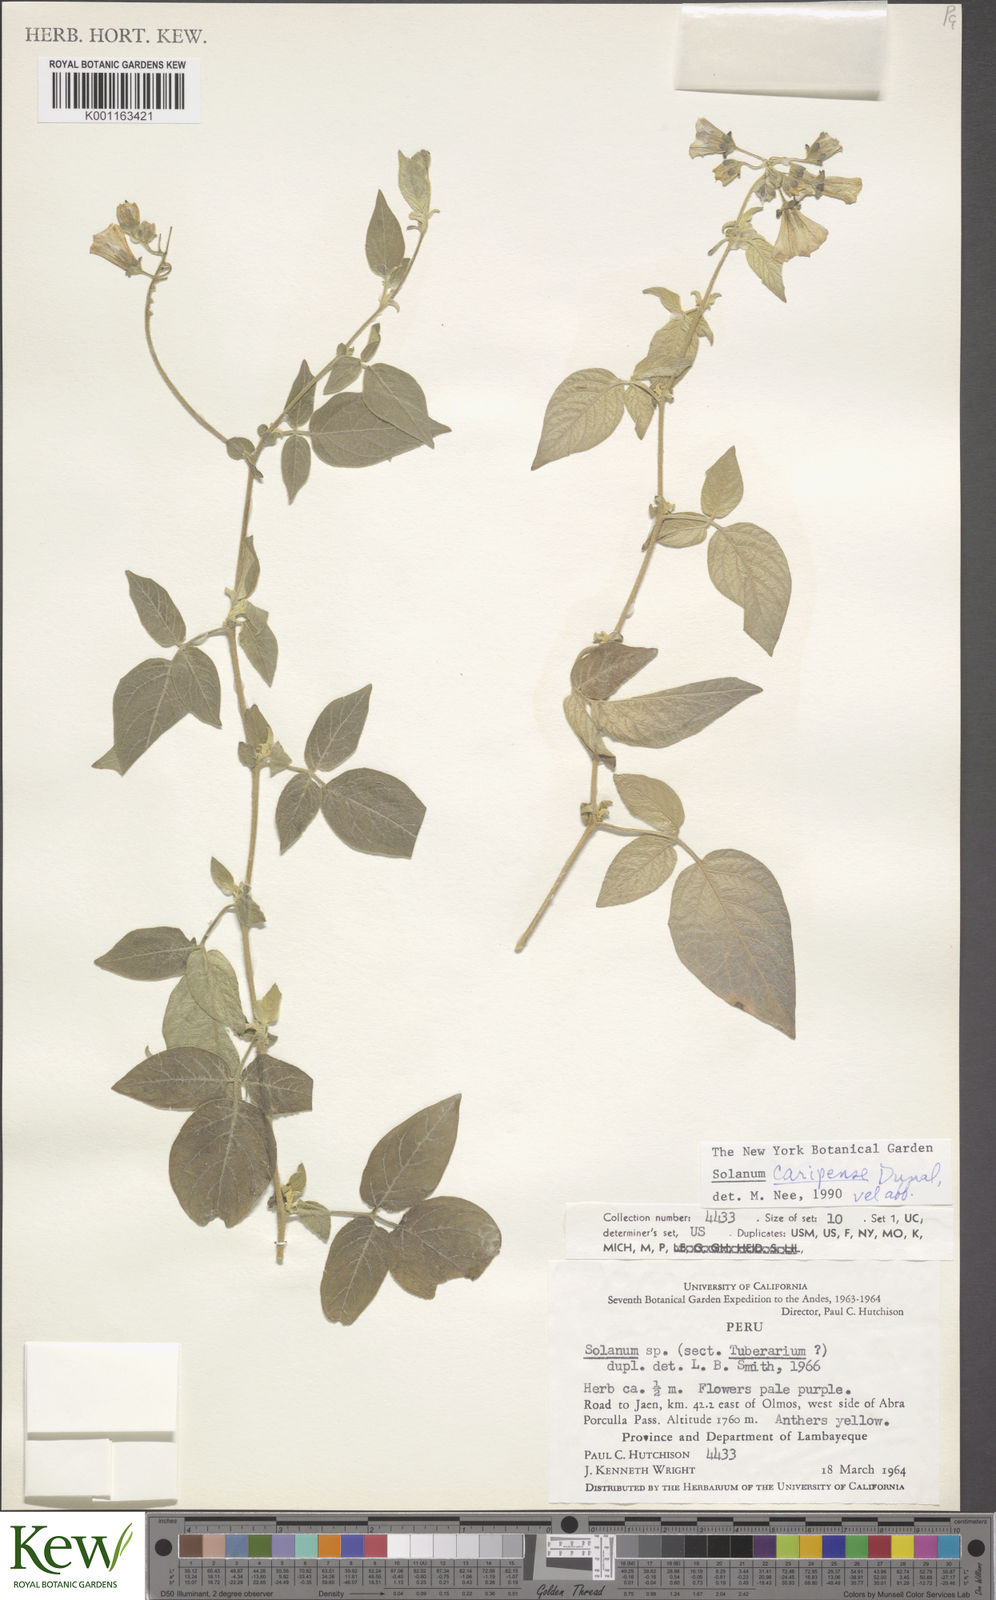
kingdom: Plantae
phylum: Tracheophyta
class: Magnoliopsida
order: Solanales
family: Solanaceae
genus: Solanum
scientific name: Solanum caripense
